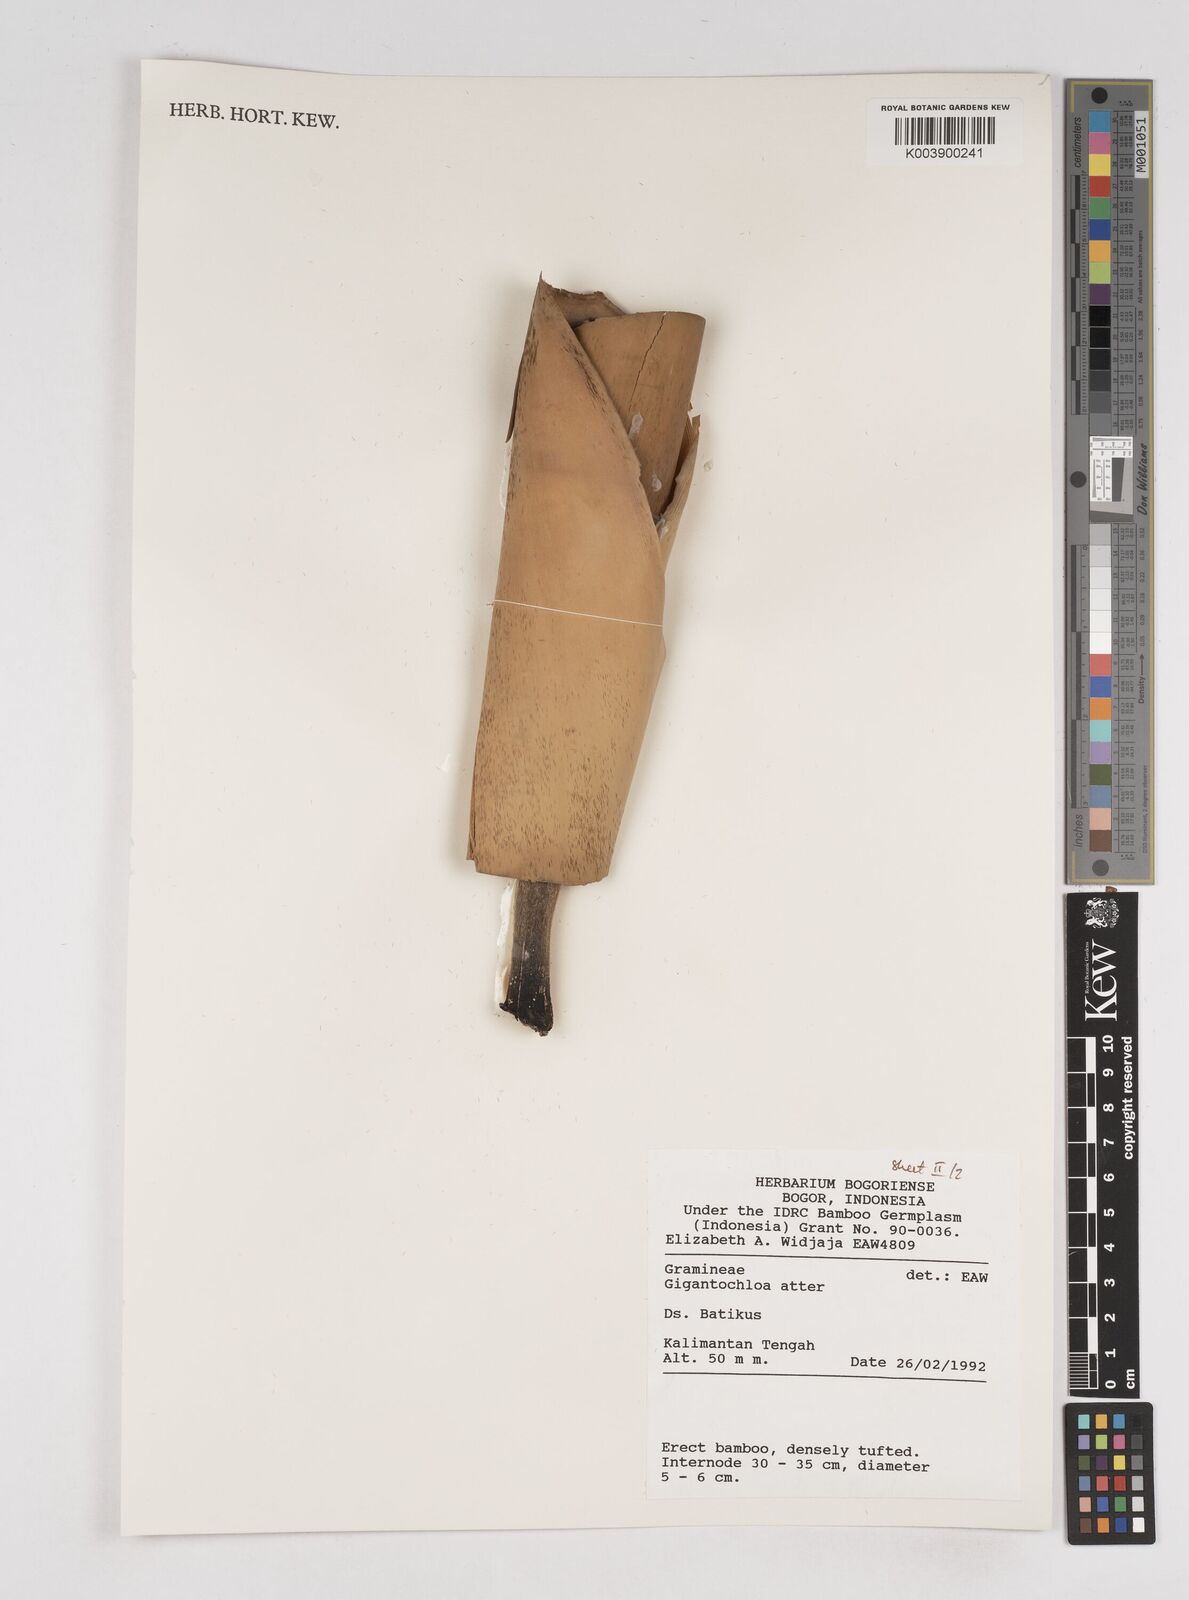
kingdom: Plantae
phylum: Tracheophyta
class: Liliopsida
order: Poales
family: Poaceae
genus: Gigantochloa
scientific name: Gigantochloa atter
